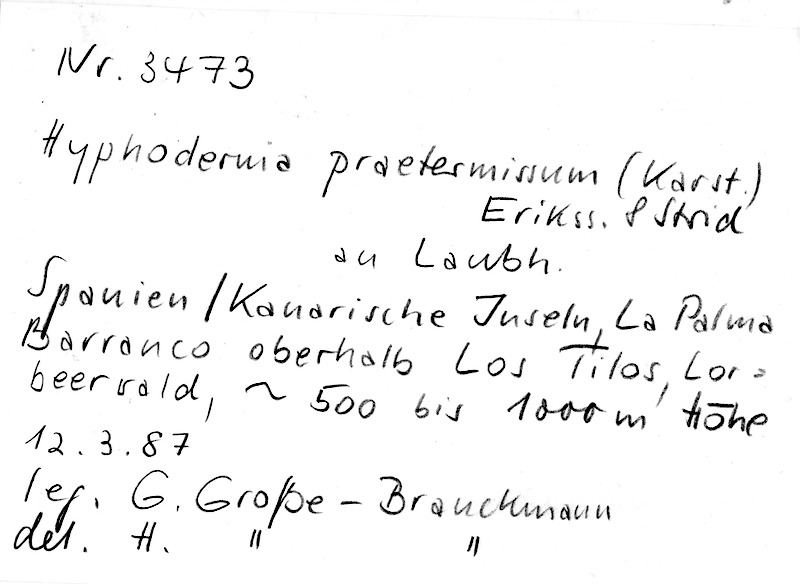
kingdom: Fungi
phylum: Basidiomycota
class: Agaricomycetes
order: Hymenochaetales
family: Rickenellaceae
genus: Peniophorella
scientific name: Peniophorella praetermissa
